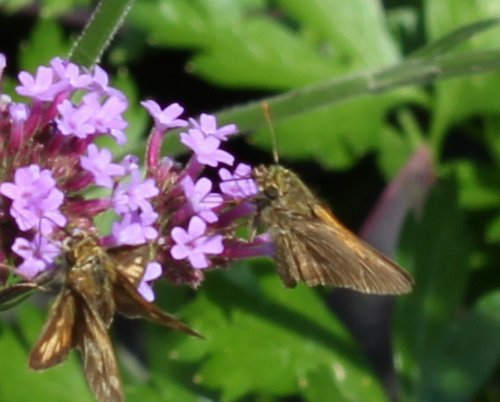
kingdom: Animalia
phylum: Arthropoda
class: Insecta
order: Lepidoptera
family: Hesperiidae
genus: Polites
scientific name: Polites coras
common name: Peck's Skipper
